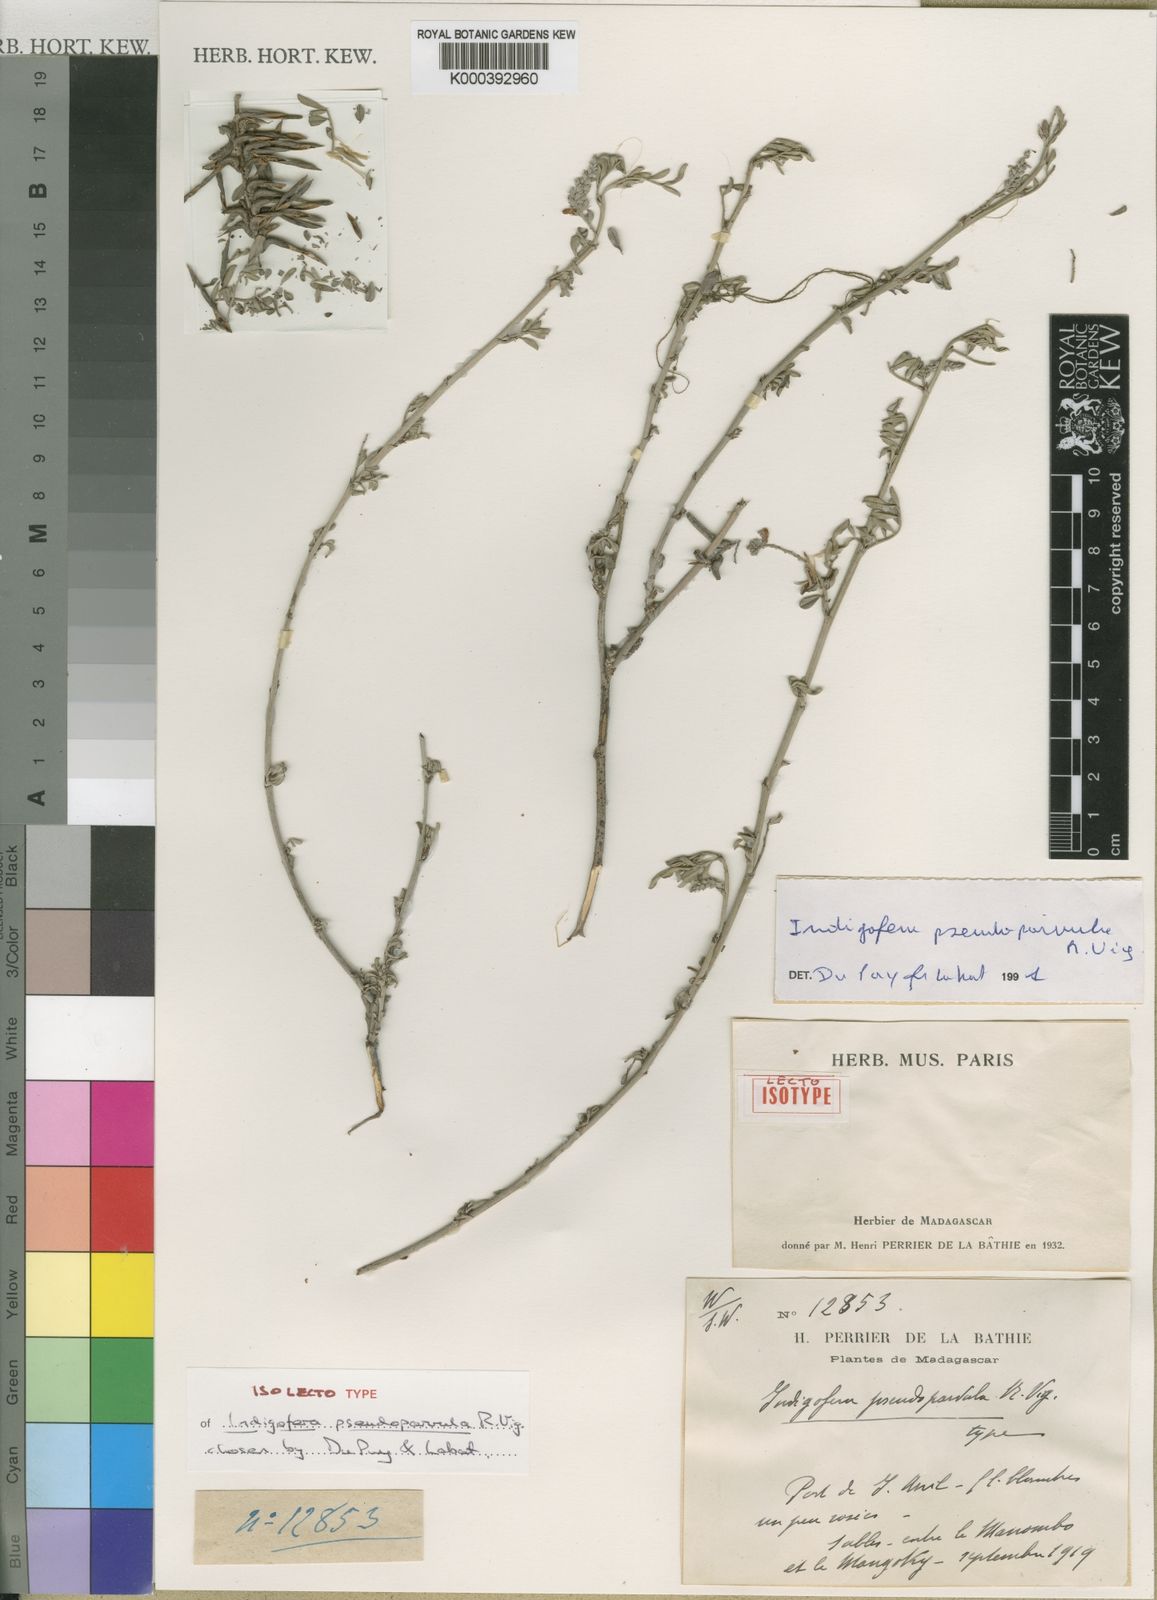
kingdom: Plantae
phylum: Tracheophyta
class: Magnoliopsida
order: Fabales
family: Fabaceae
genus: Indigofera
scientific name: Indigofera pseudoparvula
